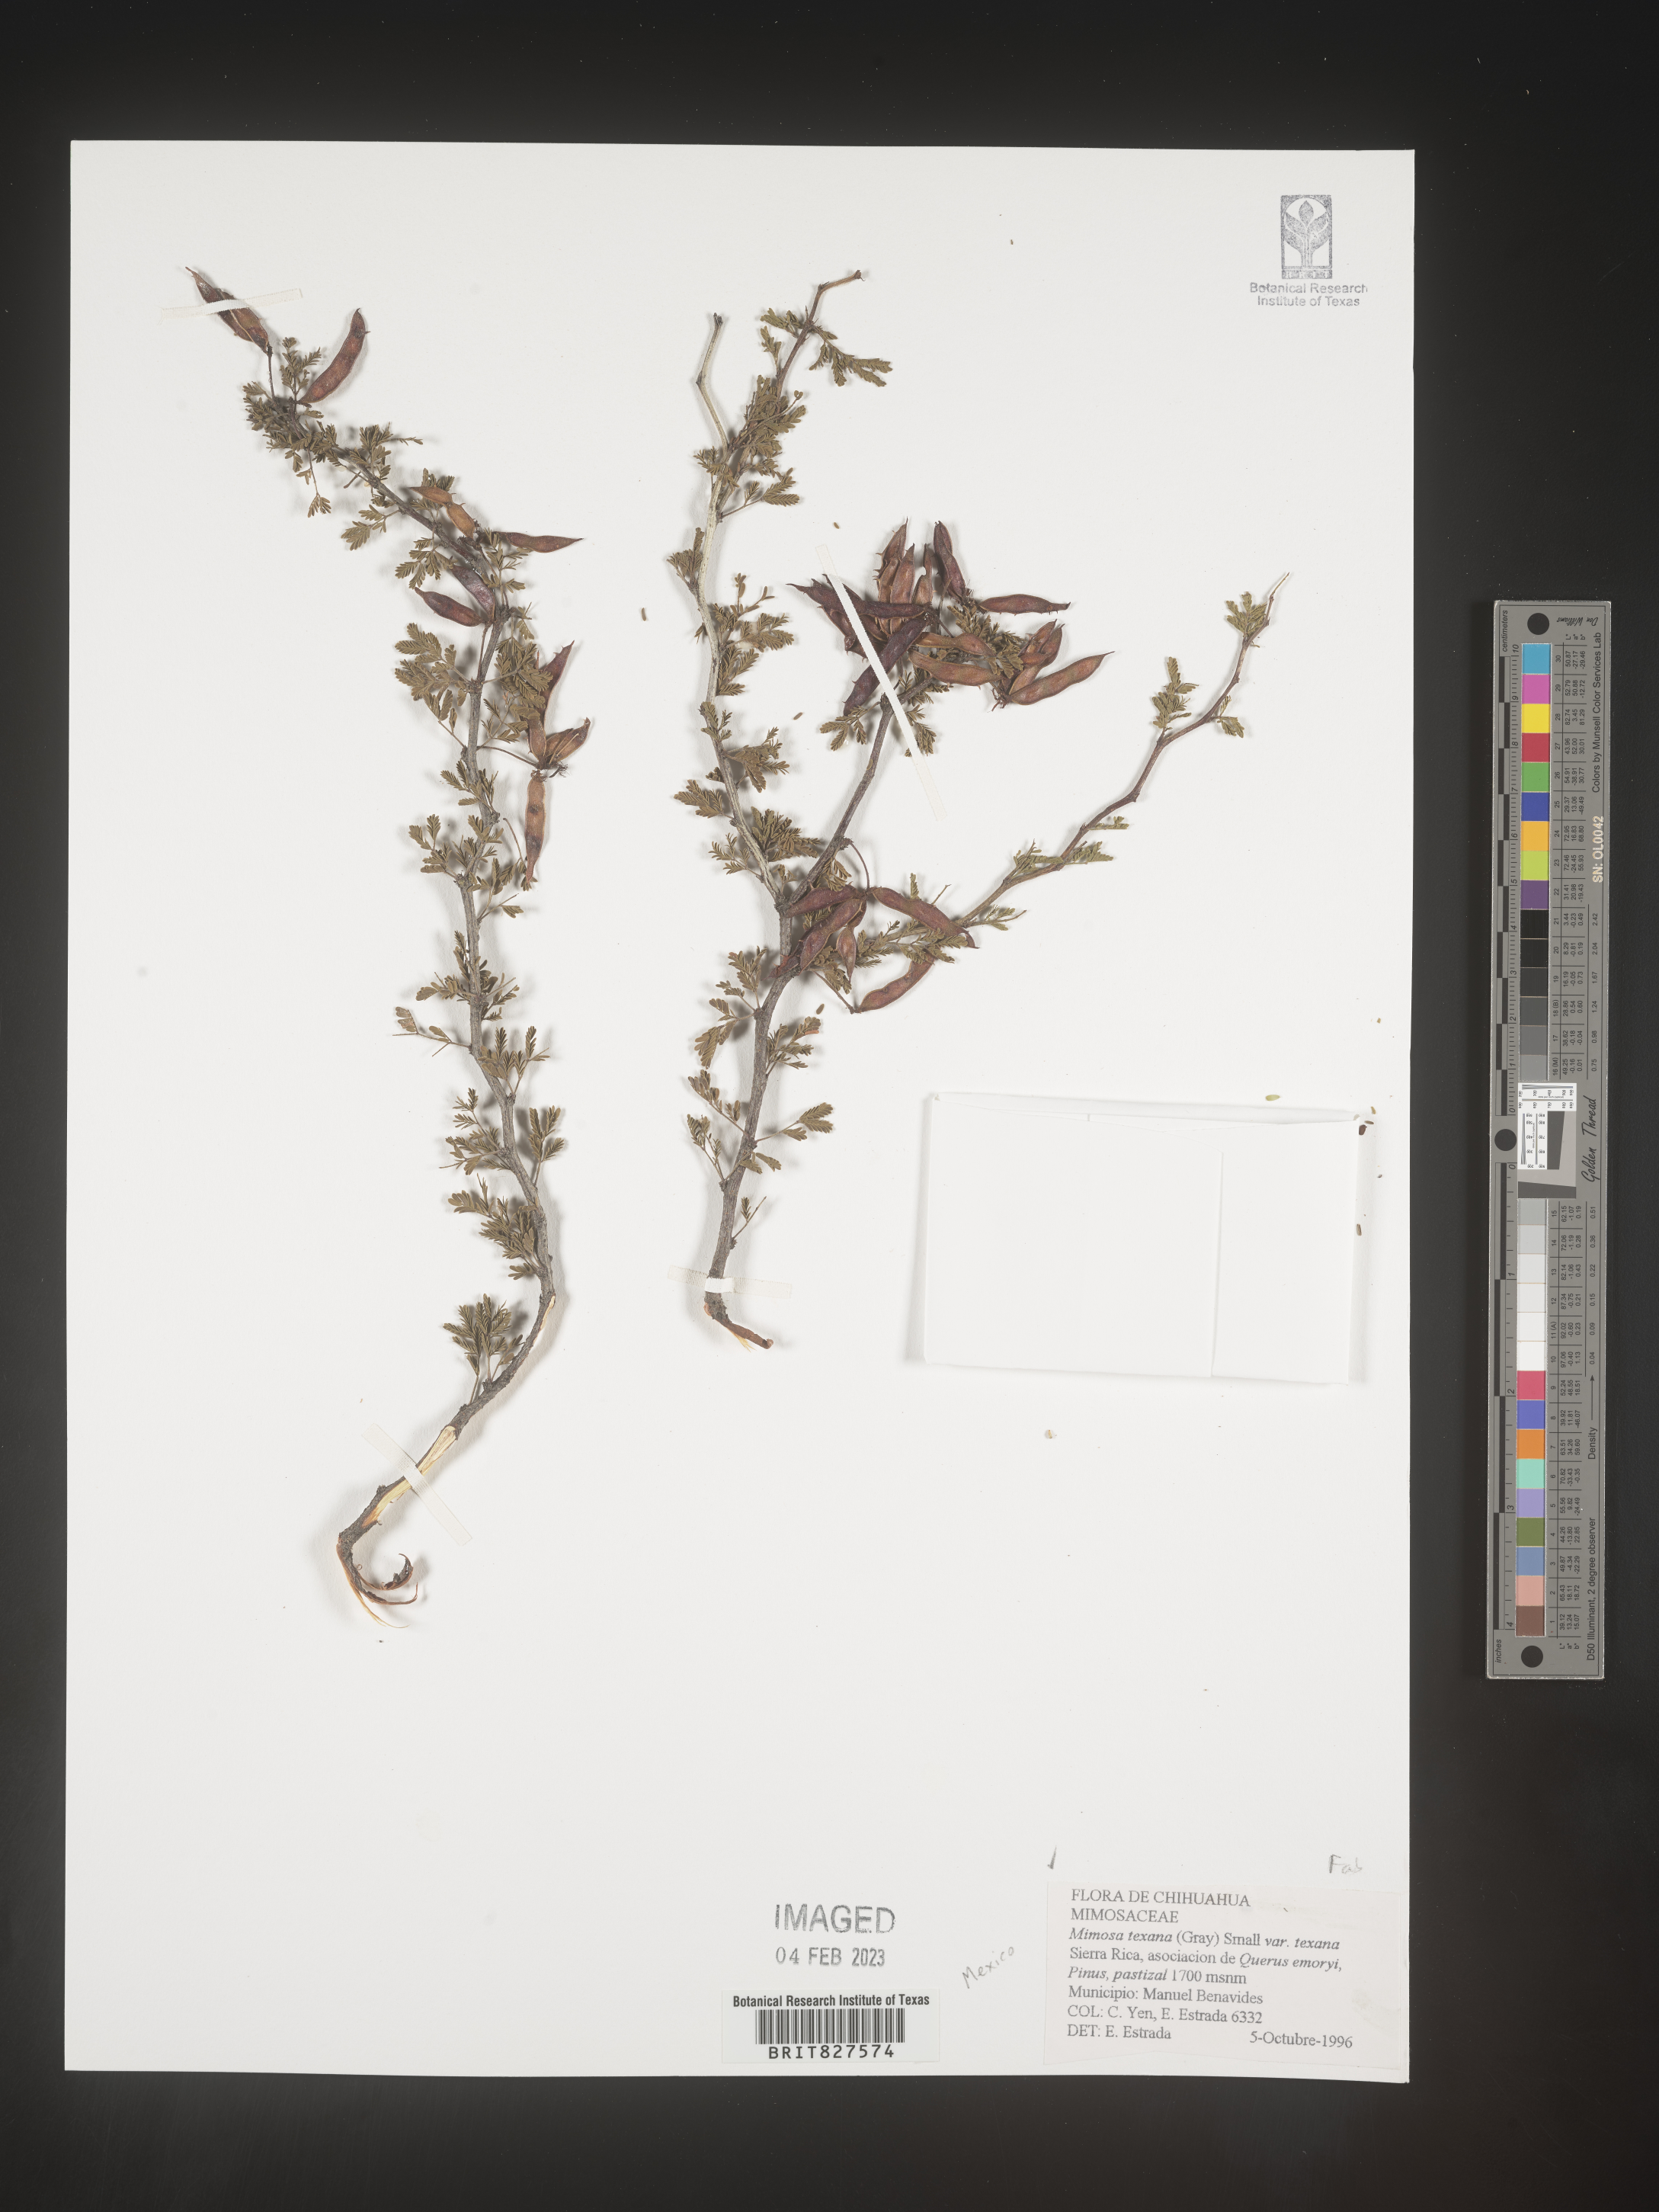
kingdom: Plantae
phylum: Tracheophyta
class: Magnoliopsida
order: Fabales
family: Fabaceae
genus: Mimosa
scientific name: Mimosa
